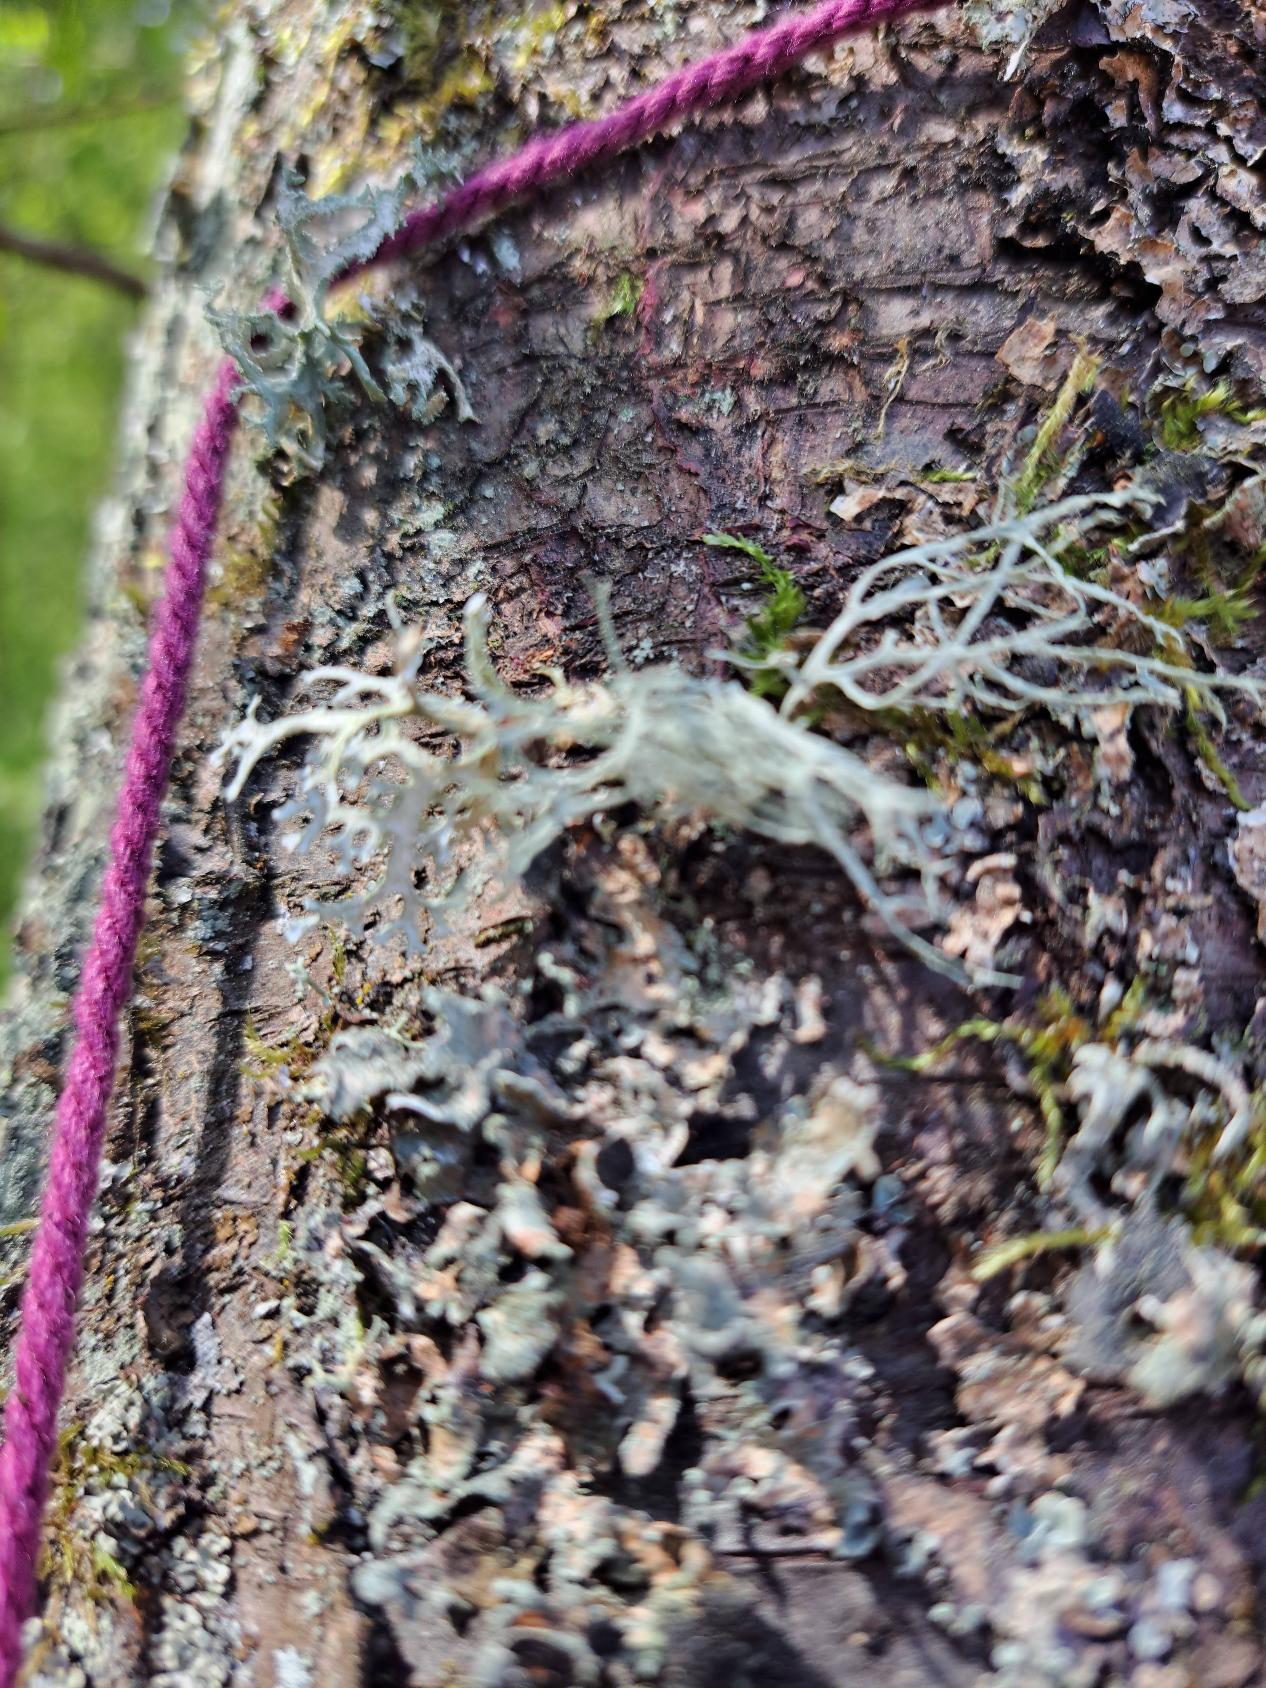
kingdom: Fungi
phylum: Ascomycota
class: Lecanoromycetes
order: Lecanorales
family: Ramalinaceae
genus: Ramalina
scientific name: Ramalina farinacea
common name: Melet grenlav
